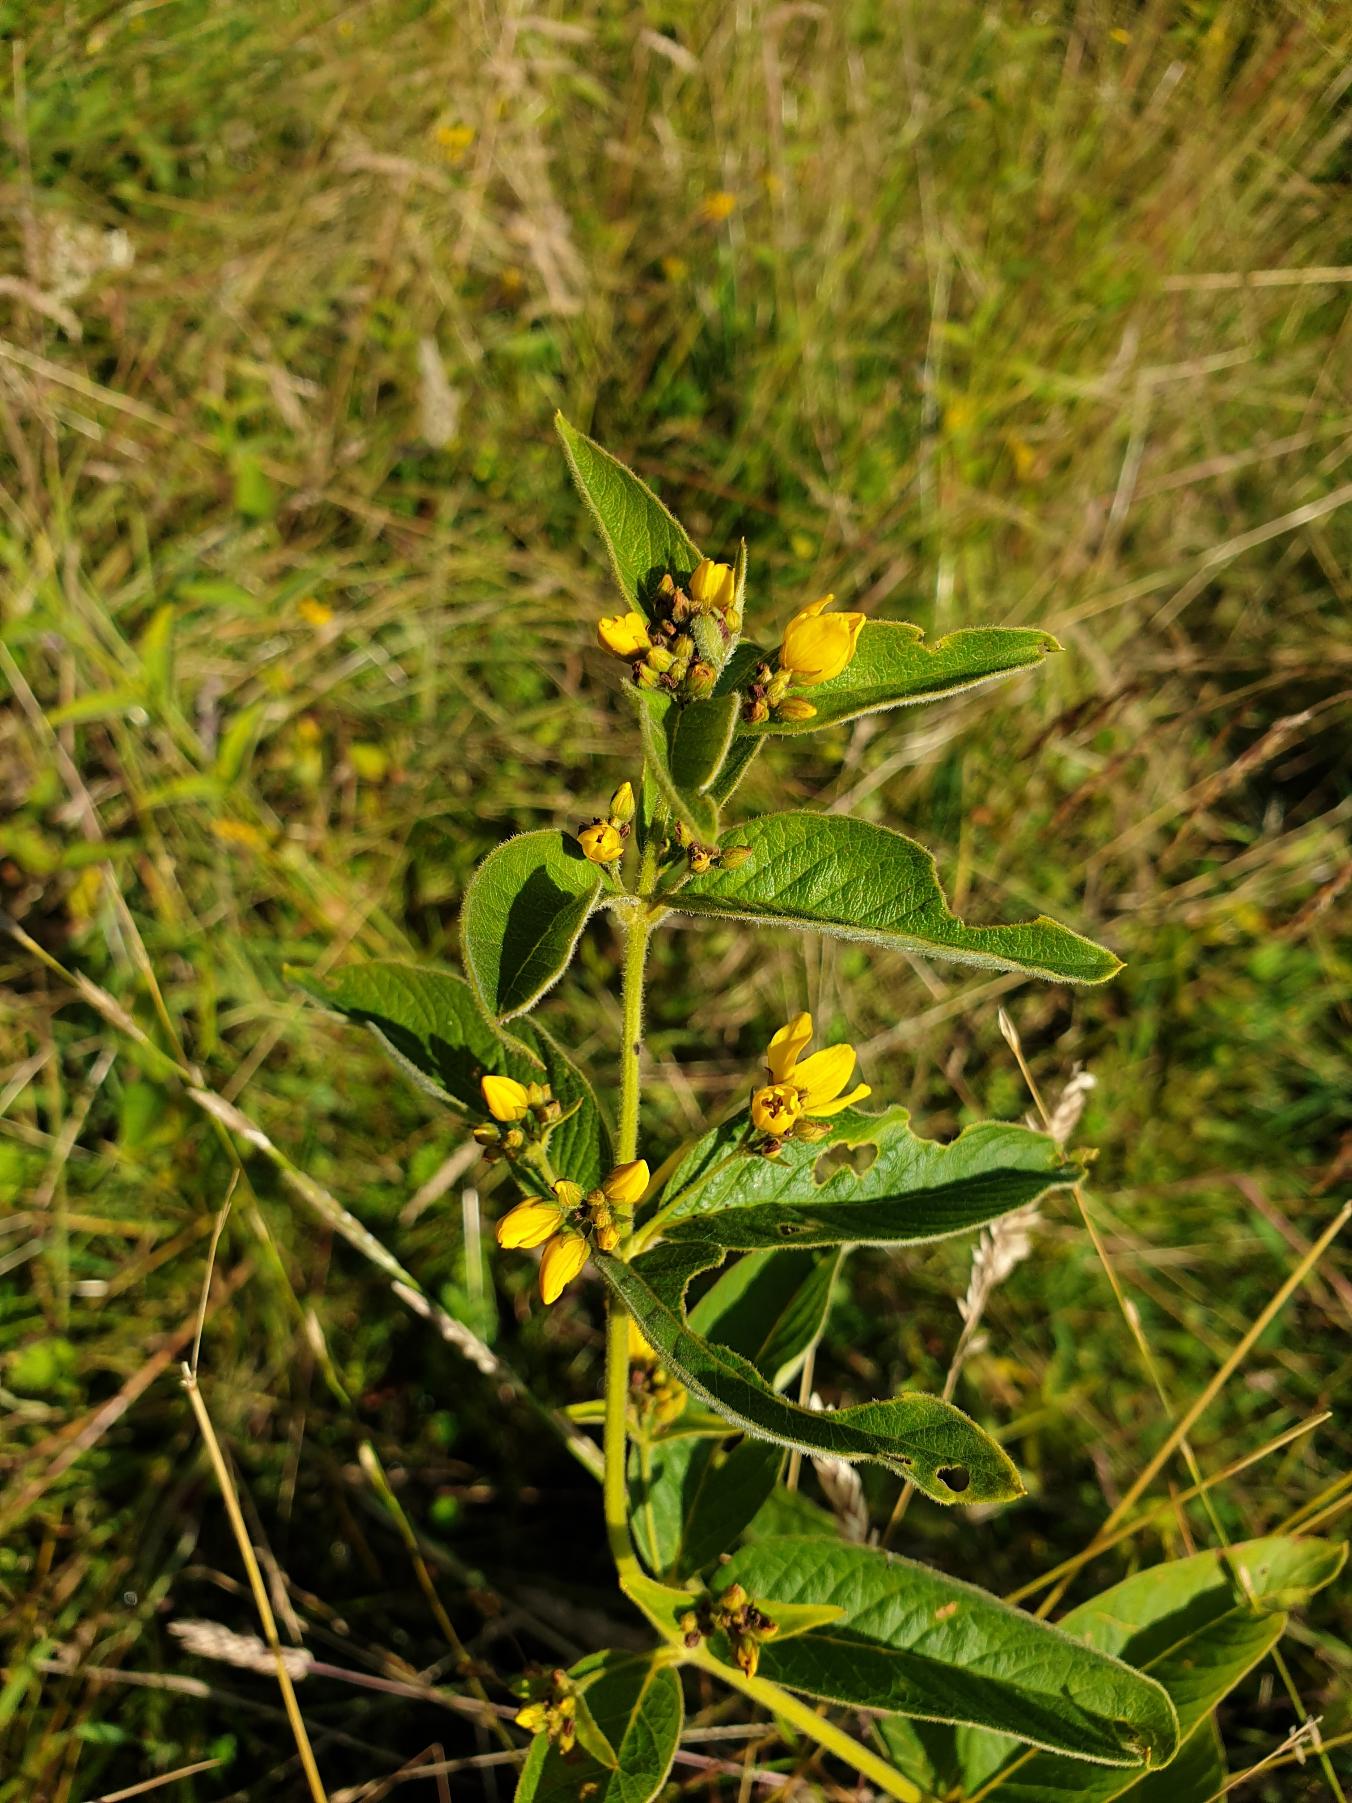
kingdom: Plantae
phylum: Tracheophyta
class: Magnoliopsida
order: Ericales
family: Primulaceae
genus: Lysimachia
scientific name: Lysimachia vulgaris
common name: Almindelig fredløs
